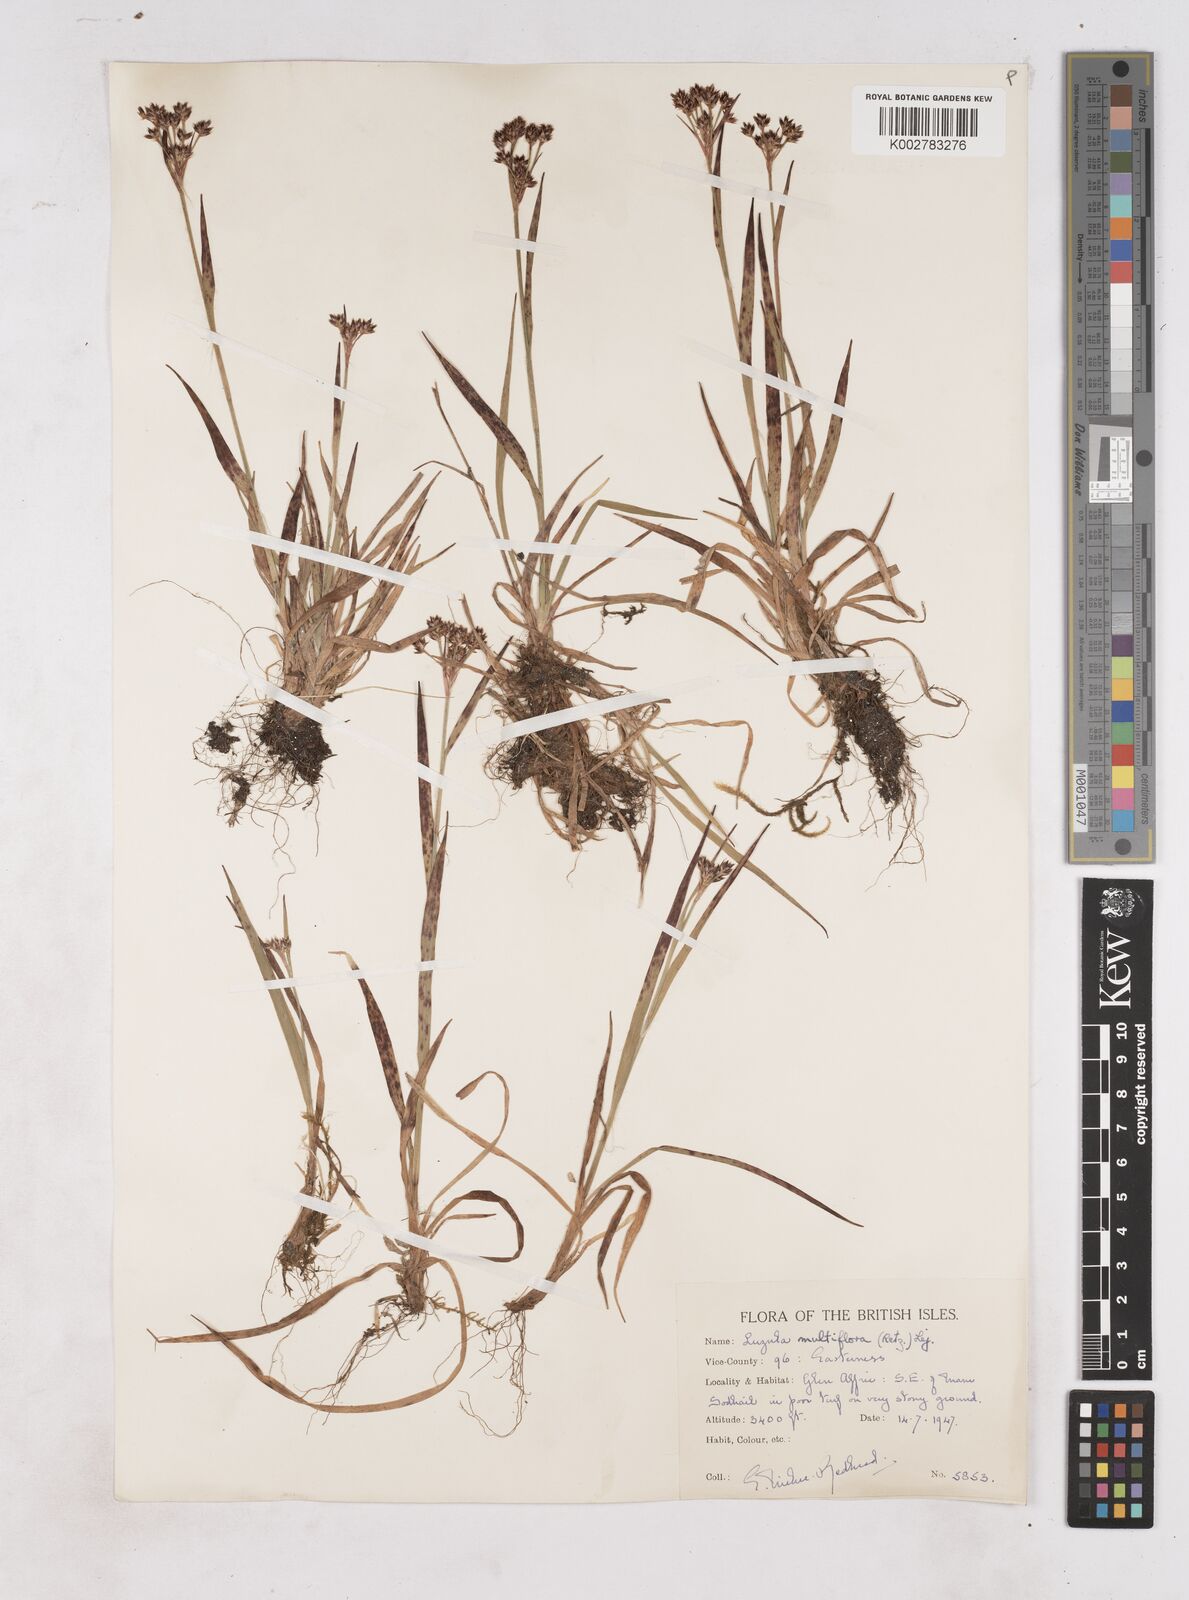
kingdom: Plantae
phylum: Tracheophyta
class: Liliopsida
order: Poales
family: Juncaceae
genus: Luzula
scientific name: Luzula multiflora
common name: Heath wood-rush
